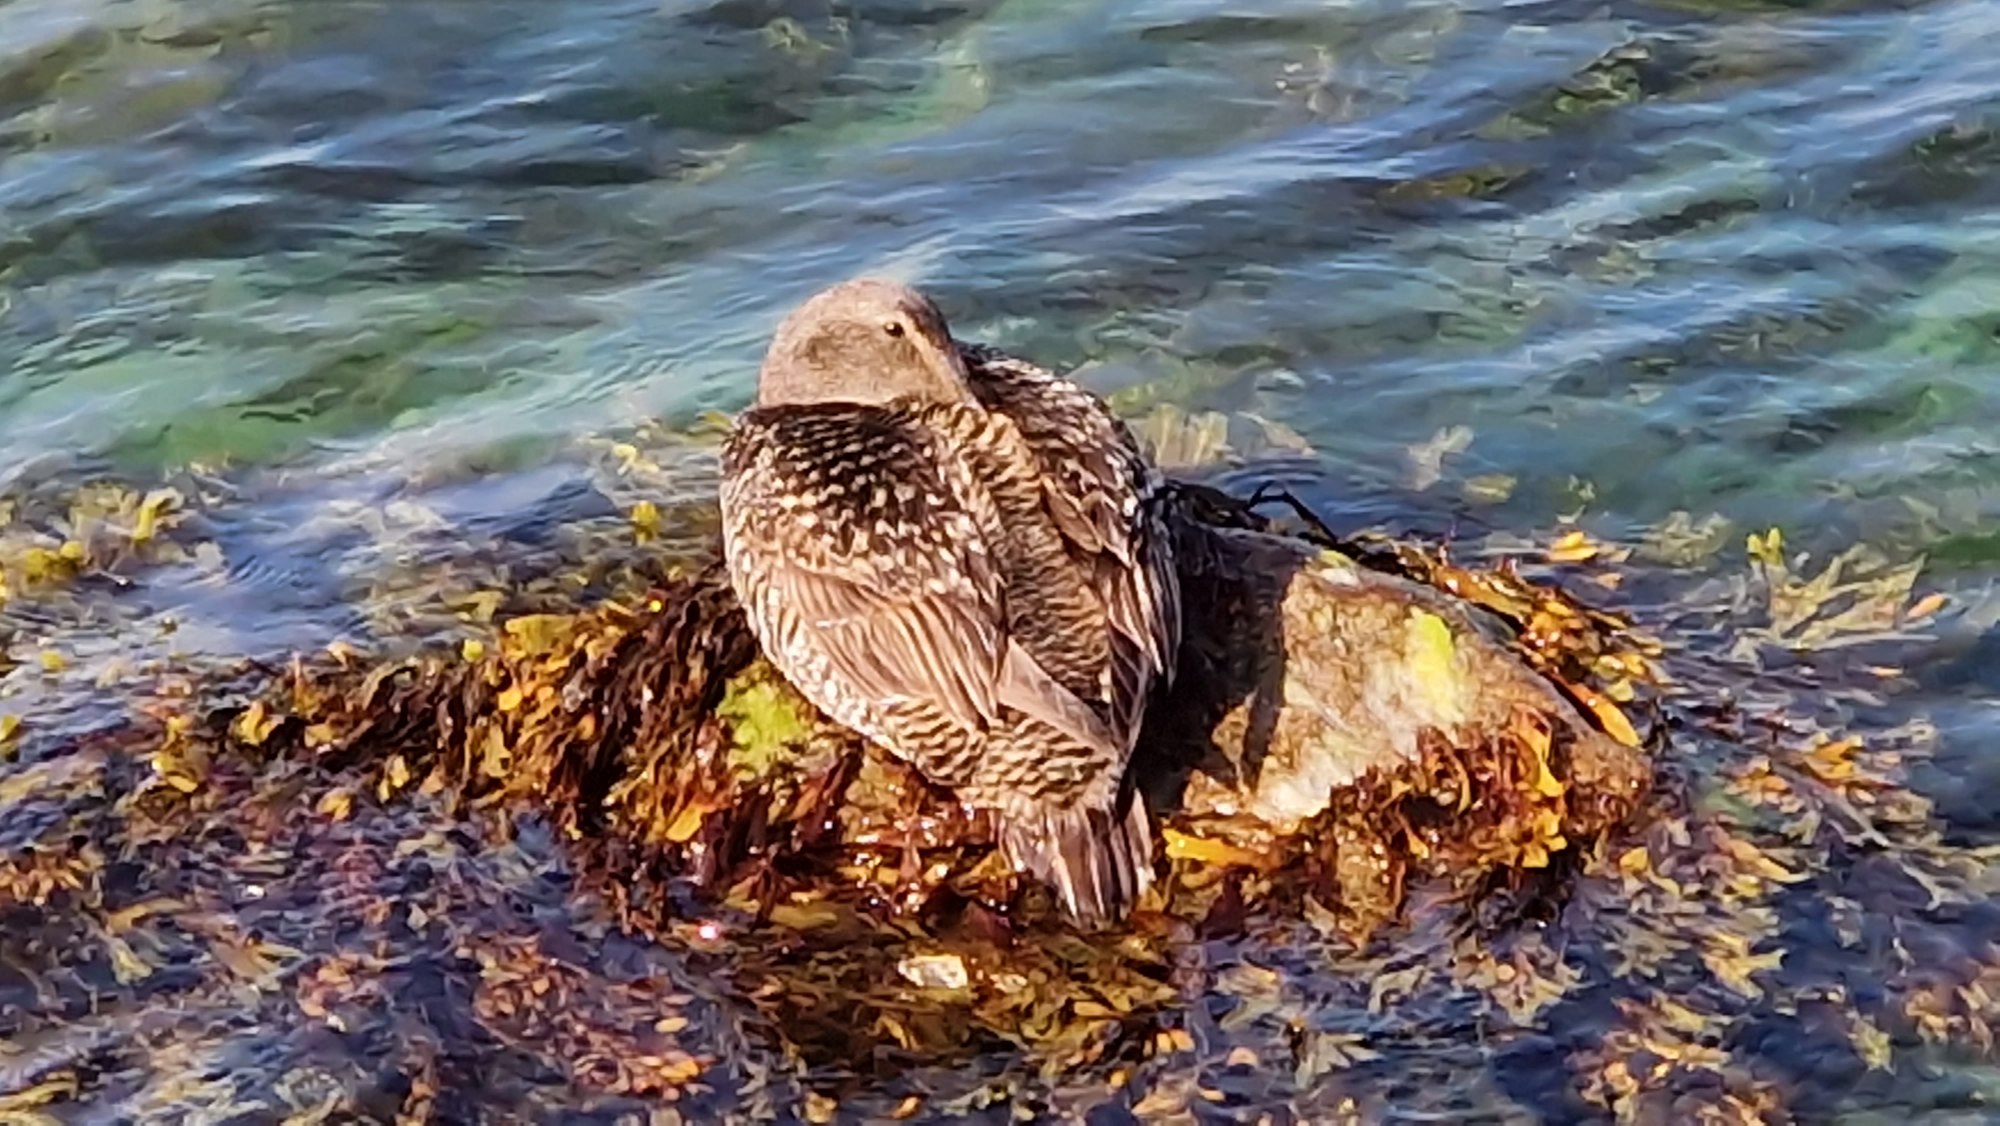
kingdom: Animalia
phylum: Chordata
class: Aves
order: Anseriformes
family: Anatidae
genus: Somateria
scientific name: Somateria mollissima
